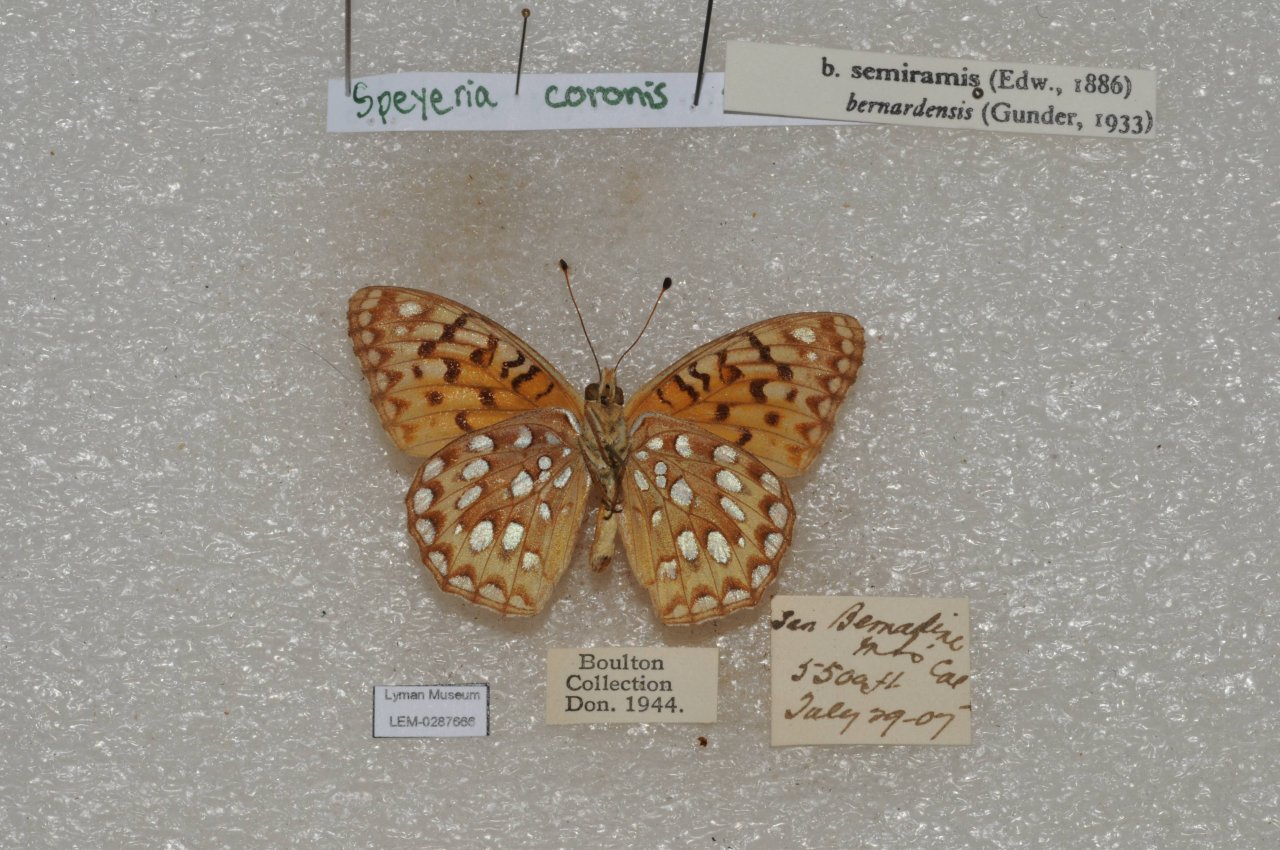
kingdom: Animalia
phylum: Arthropoda
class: Insecta
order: Lepidoptera
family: Nymphalidae
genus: Speyeria
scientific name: Speyeria coronis
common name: Coronis Fritillary
